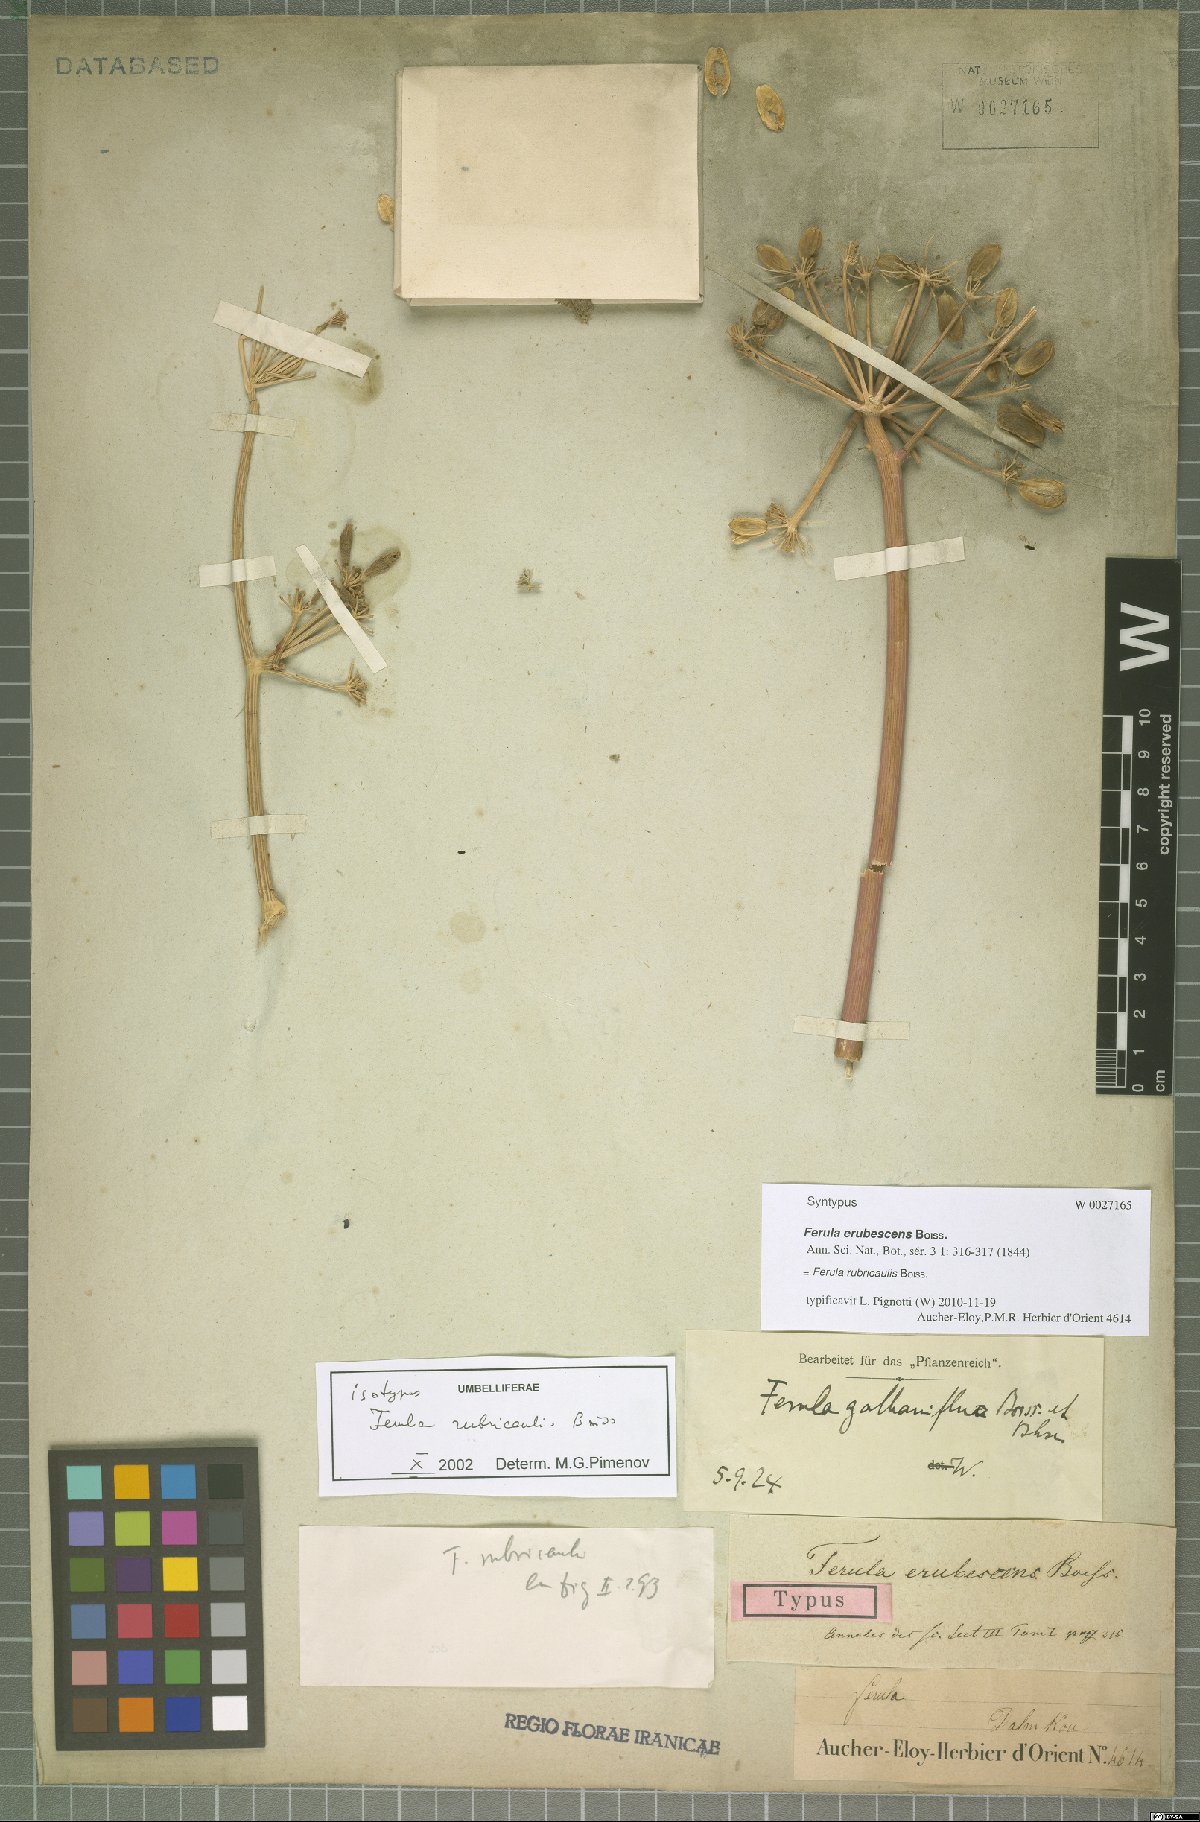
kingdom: Plantae
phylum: Tracheophyta
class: Magnoliopsida
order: Apiales
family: Apiaceae
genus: Ferula
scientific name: Ferula rubricaulis
